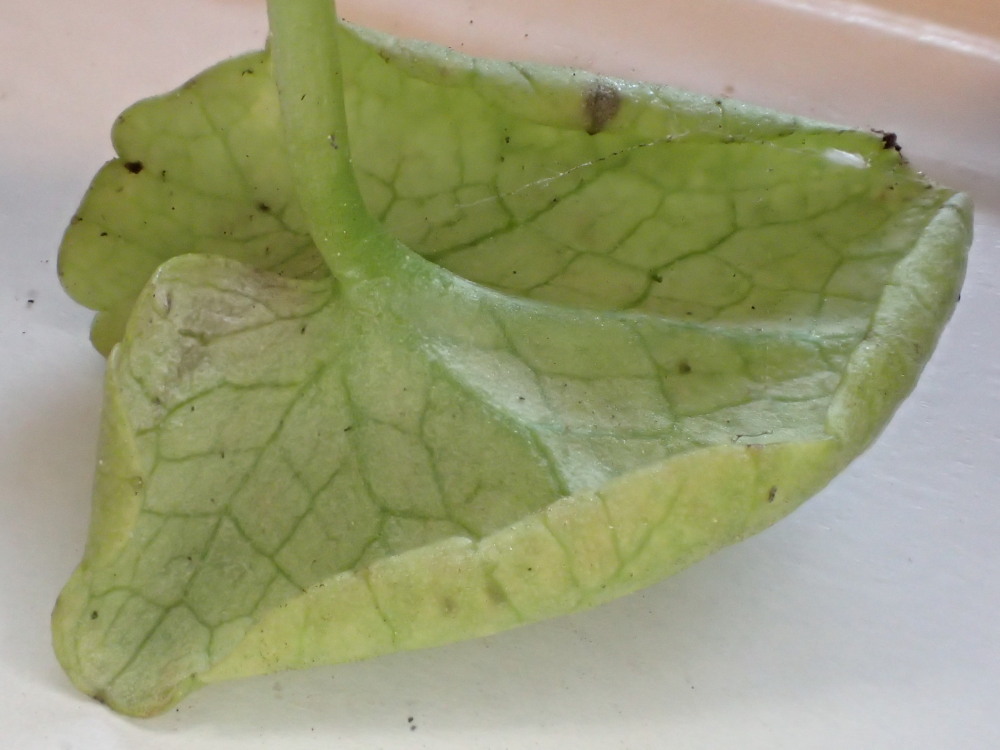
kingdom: Chromista
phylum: Oomycota
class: Peronosporea
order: Peronosporales
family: Peronosporaceae
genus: Peronospora
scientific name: Peronospora ficariae
